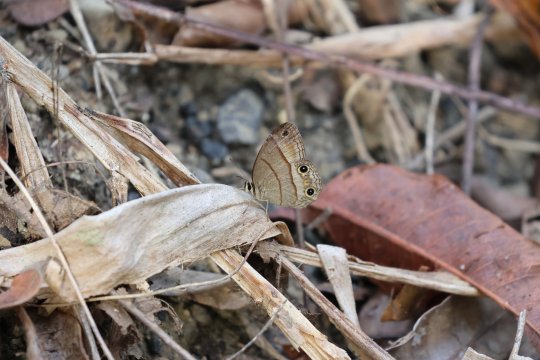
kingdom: Animalia
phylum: Arthropoda
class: Insecta
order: Lepidoptera
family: Nymphalidae
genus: Euptychia
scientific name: Euptychia Cissia pompilia
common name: Plain Satyr
